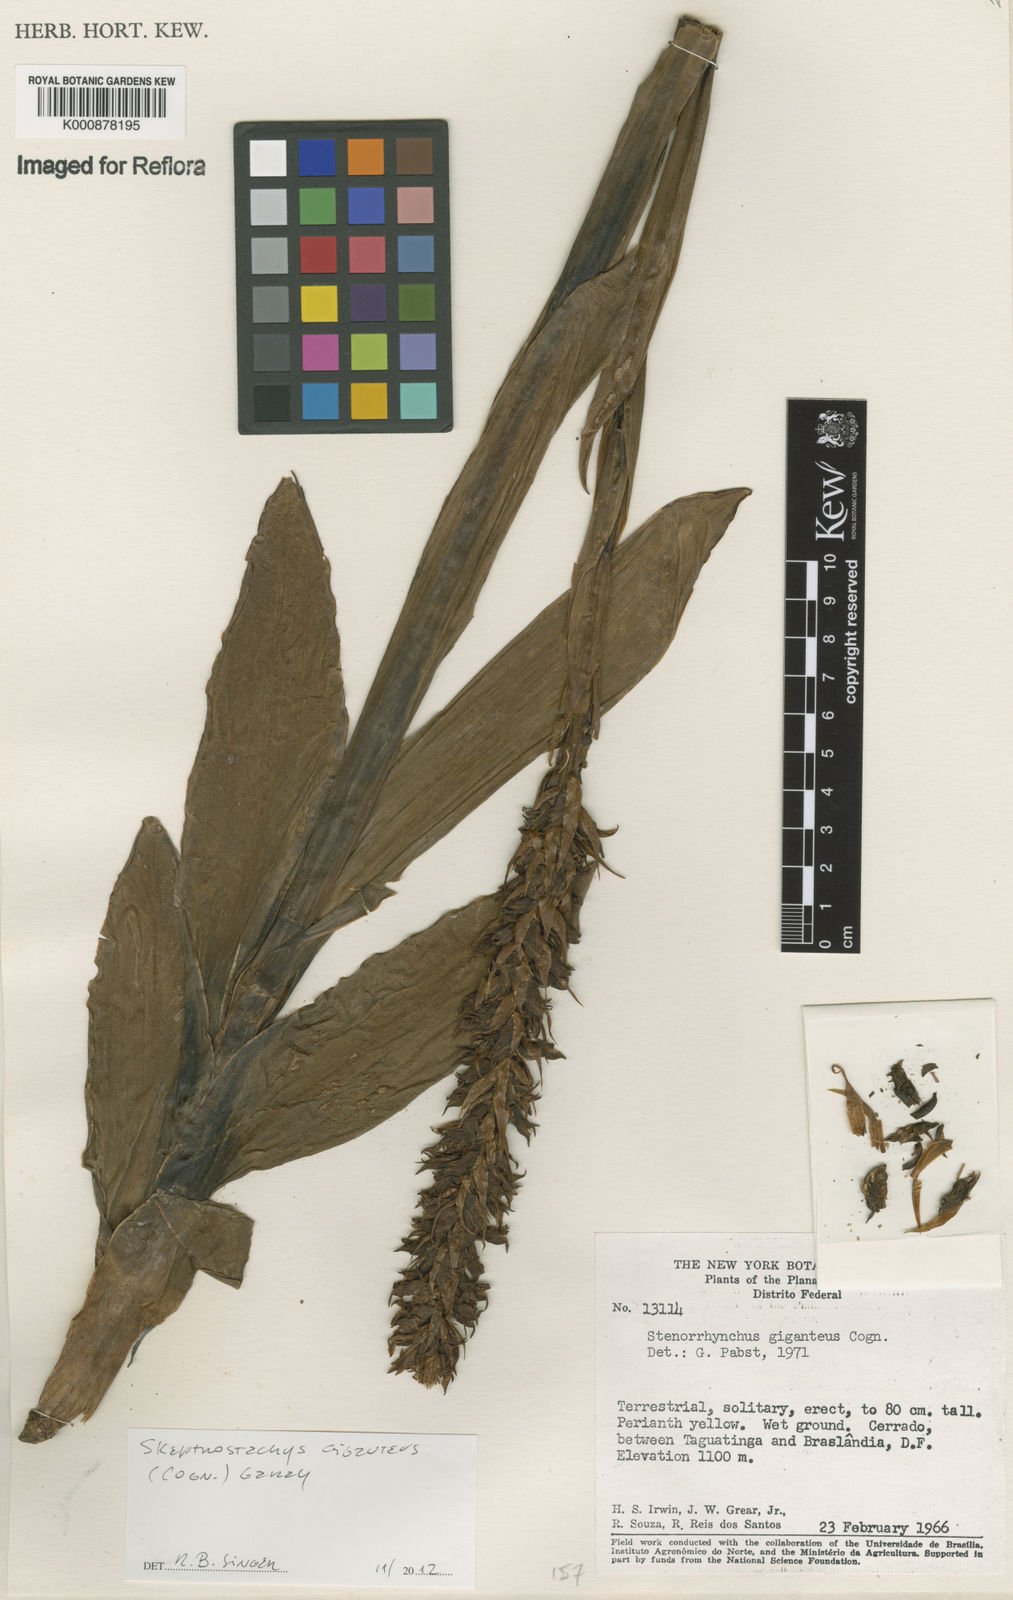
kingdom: Plantae
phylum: Tracheophyta
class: Liliopsida
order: Asparagales
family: Orchidaceae
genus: Skeptrostachys
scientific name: Skeptrostachys gigantea
